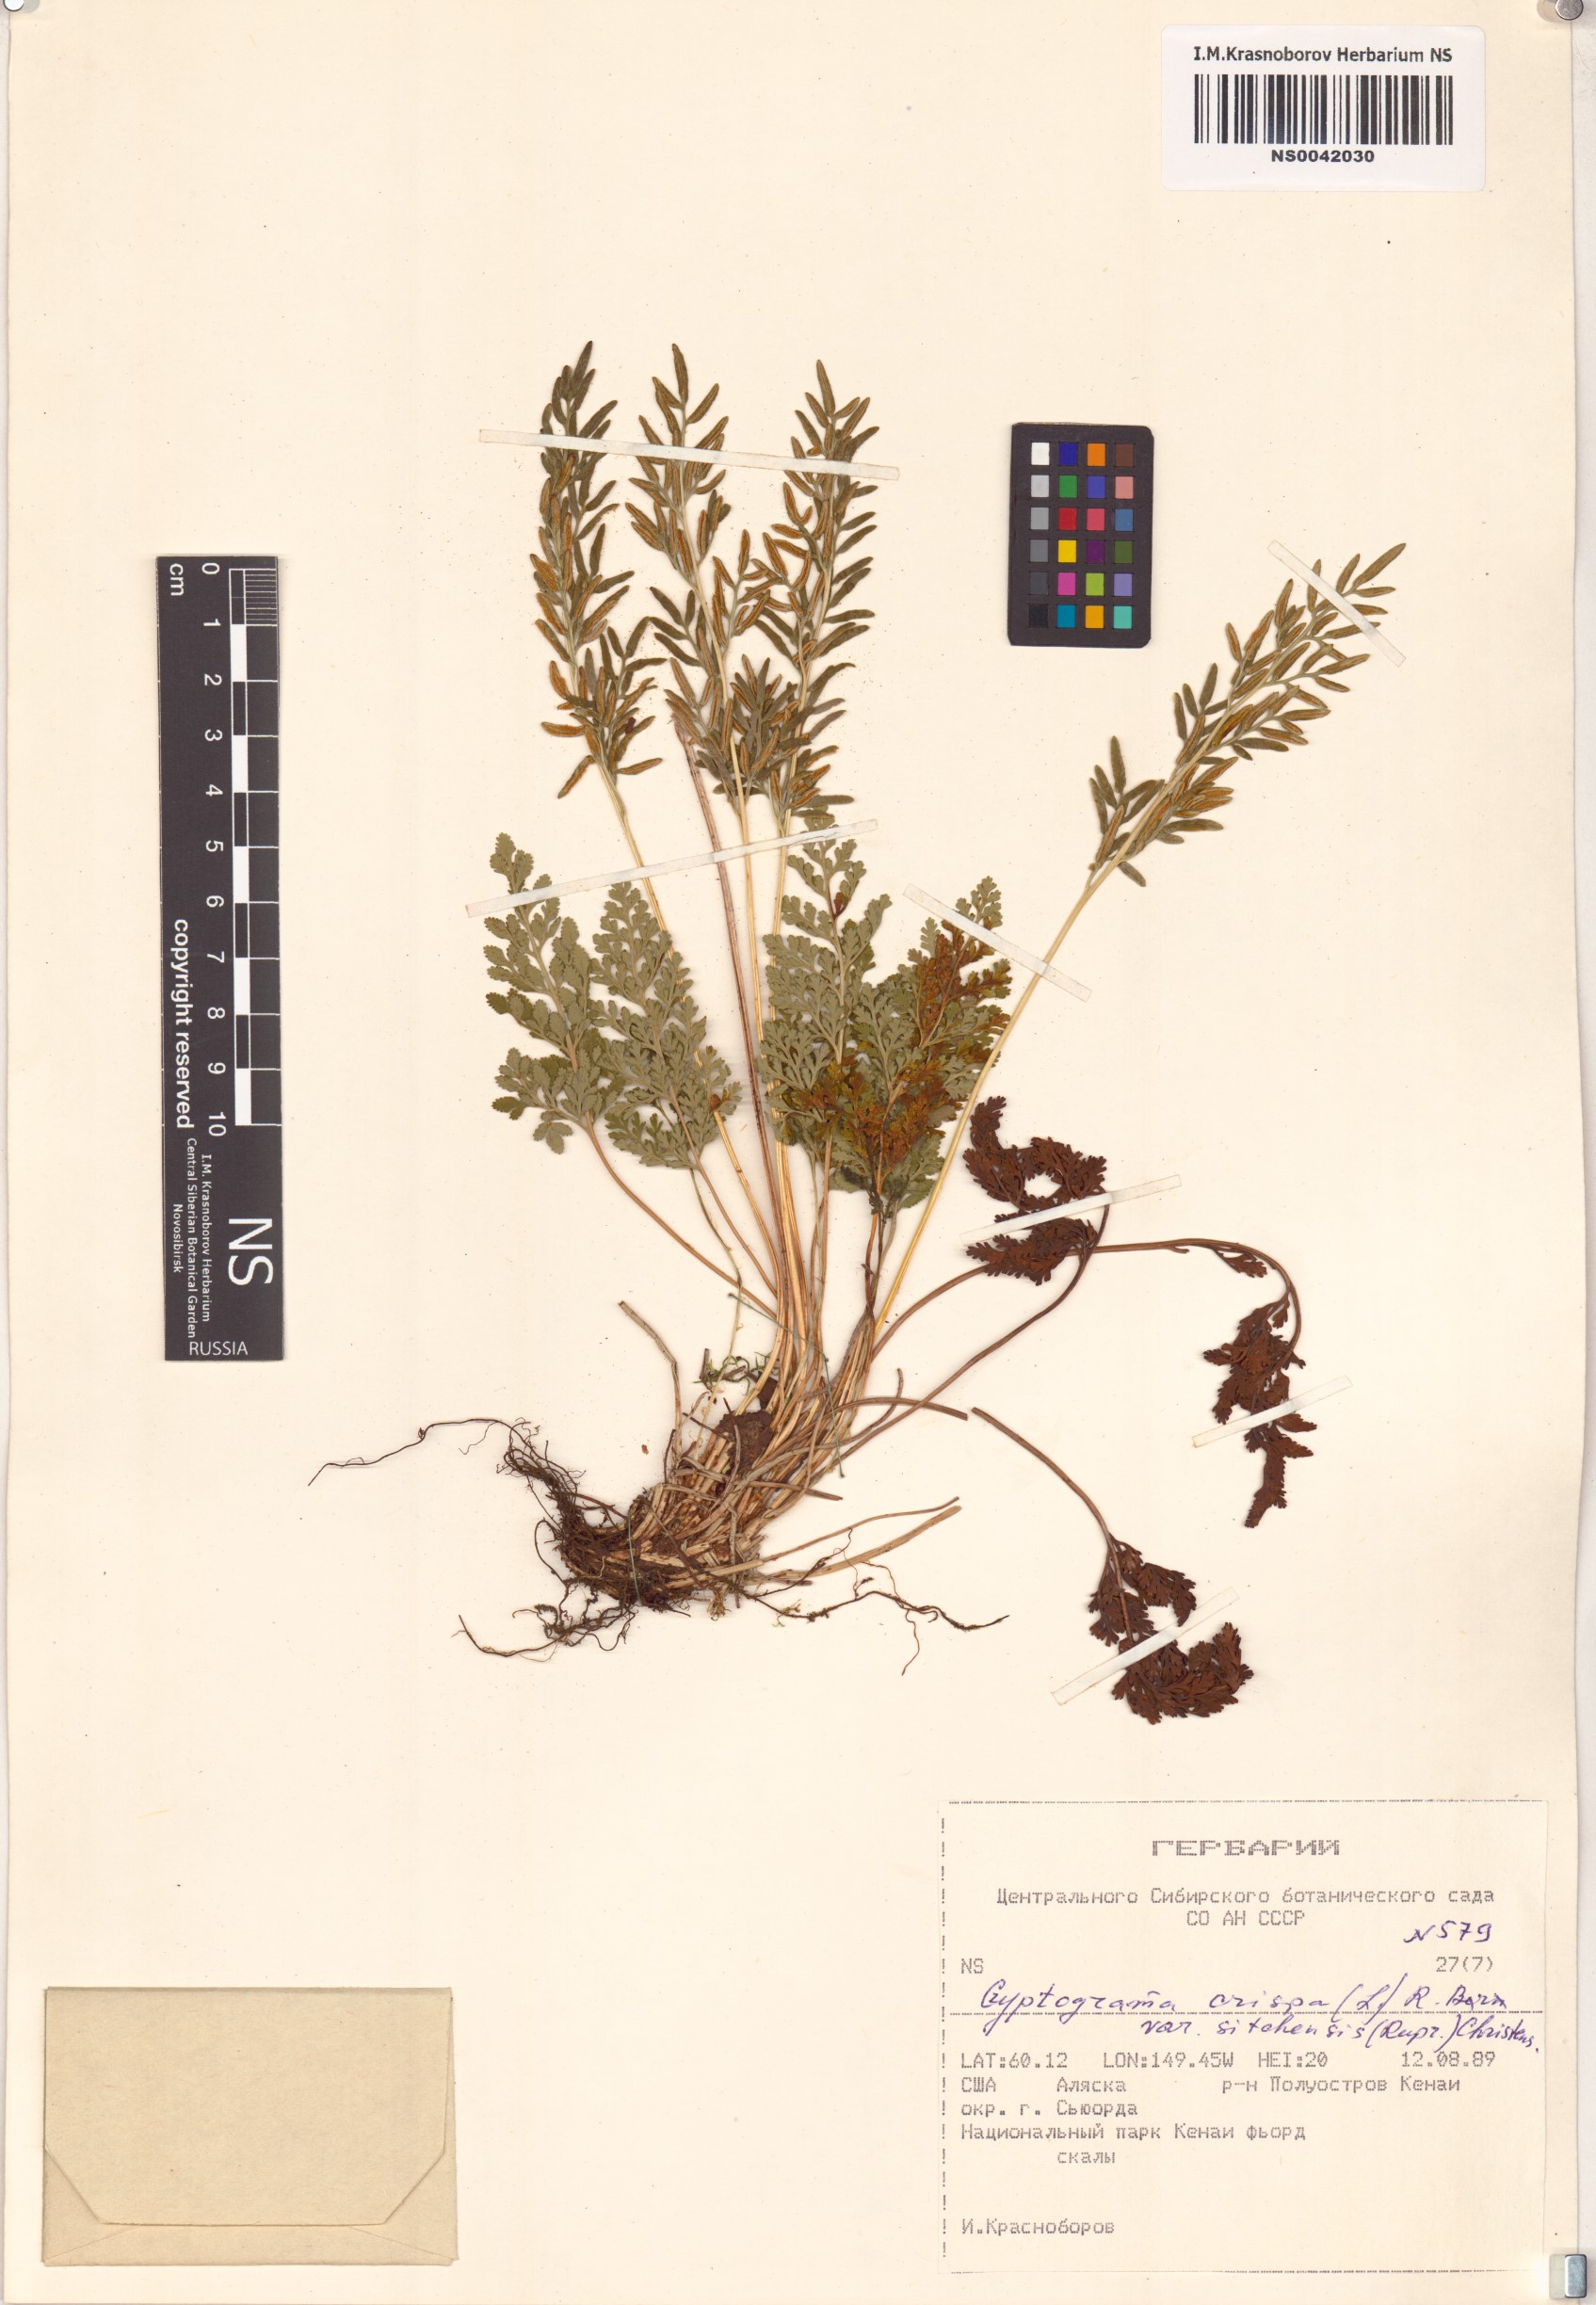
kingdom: Plantae
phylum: Tracheophyta
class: Polypodiopsida
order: Polypodiales
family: Pteridaceae
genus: Cryptogramma
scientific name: Cryptogramma crispa
